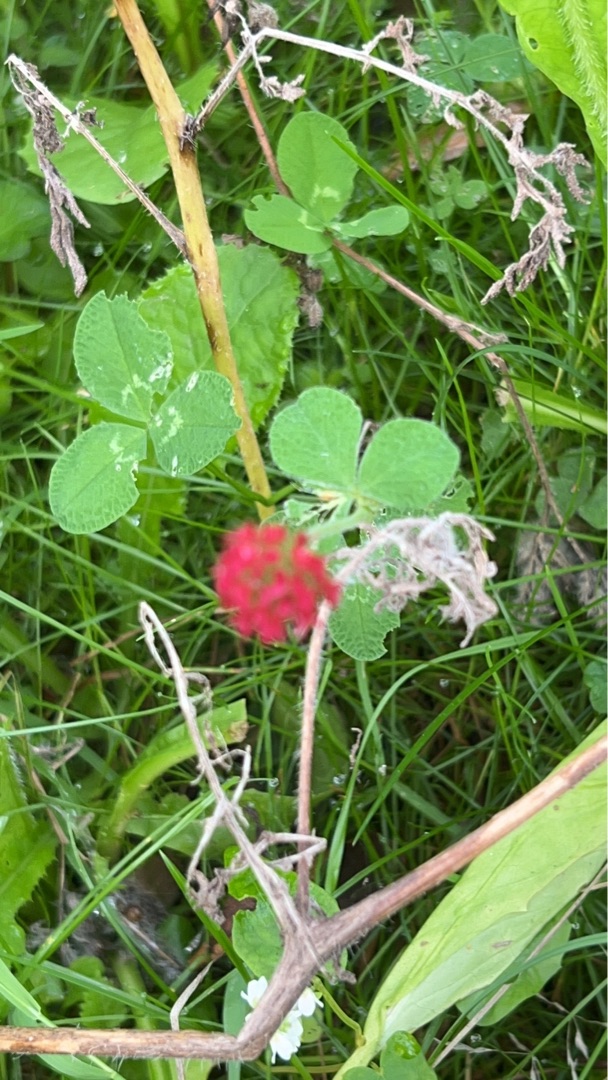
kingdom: Plantae
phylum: Tracheophyta
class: Magnoliopsida
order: Fabales
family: Fabaceae
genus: Trifolium
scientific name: Trifolium incarnatum
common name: Blod-kløver
